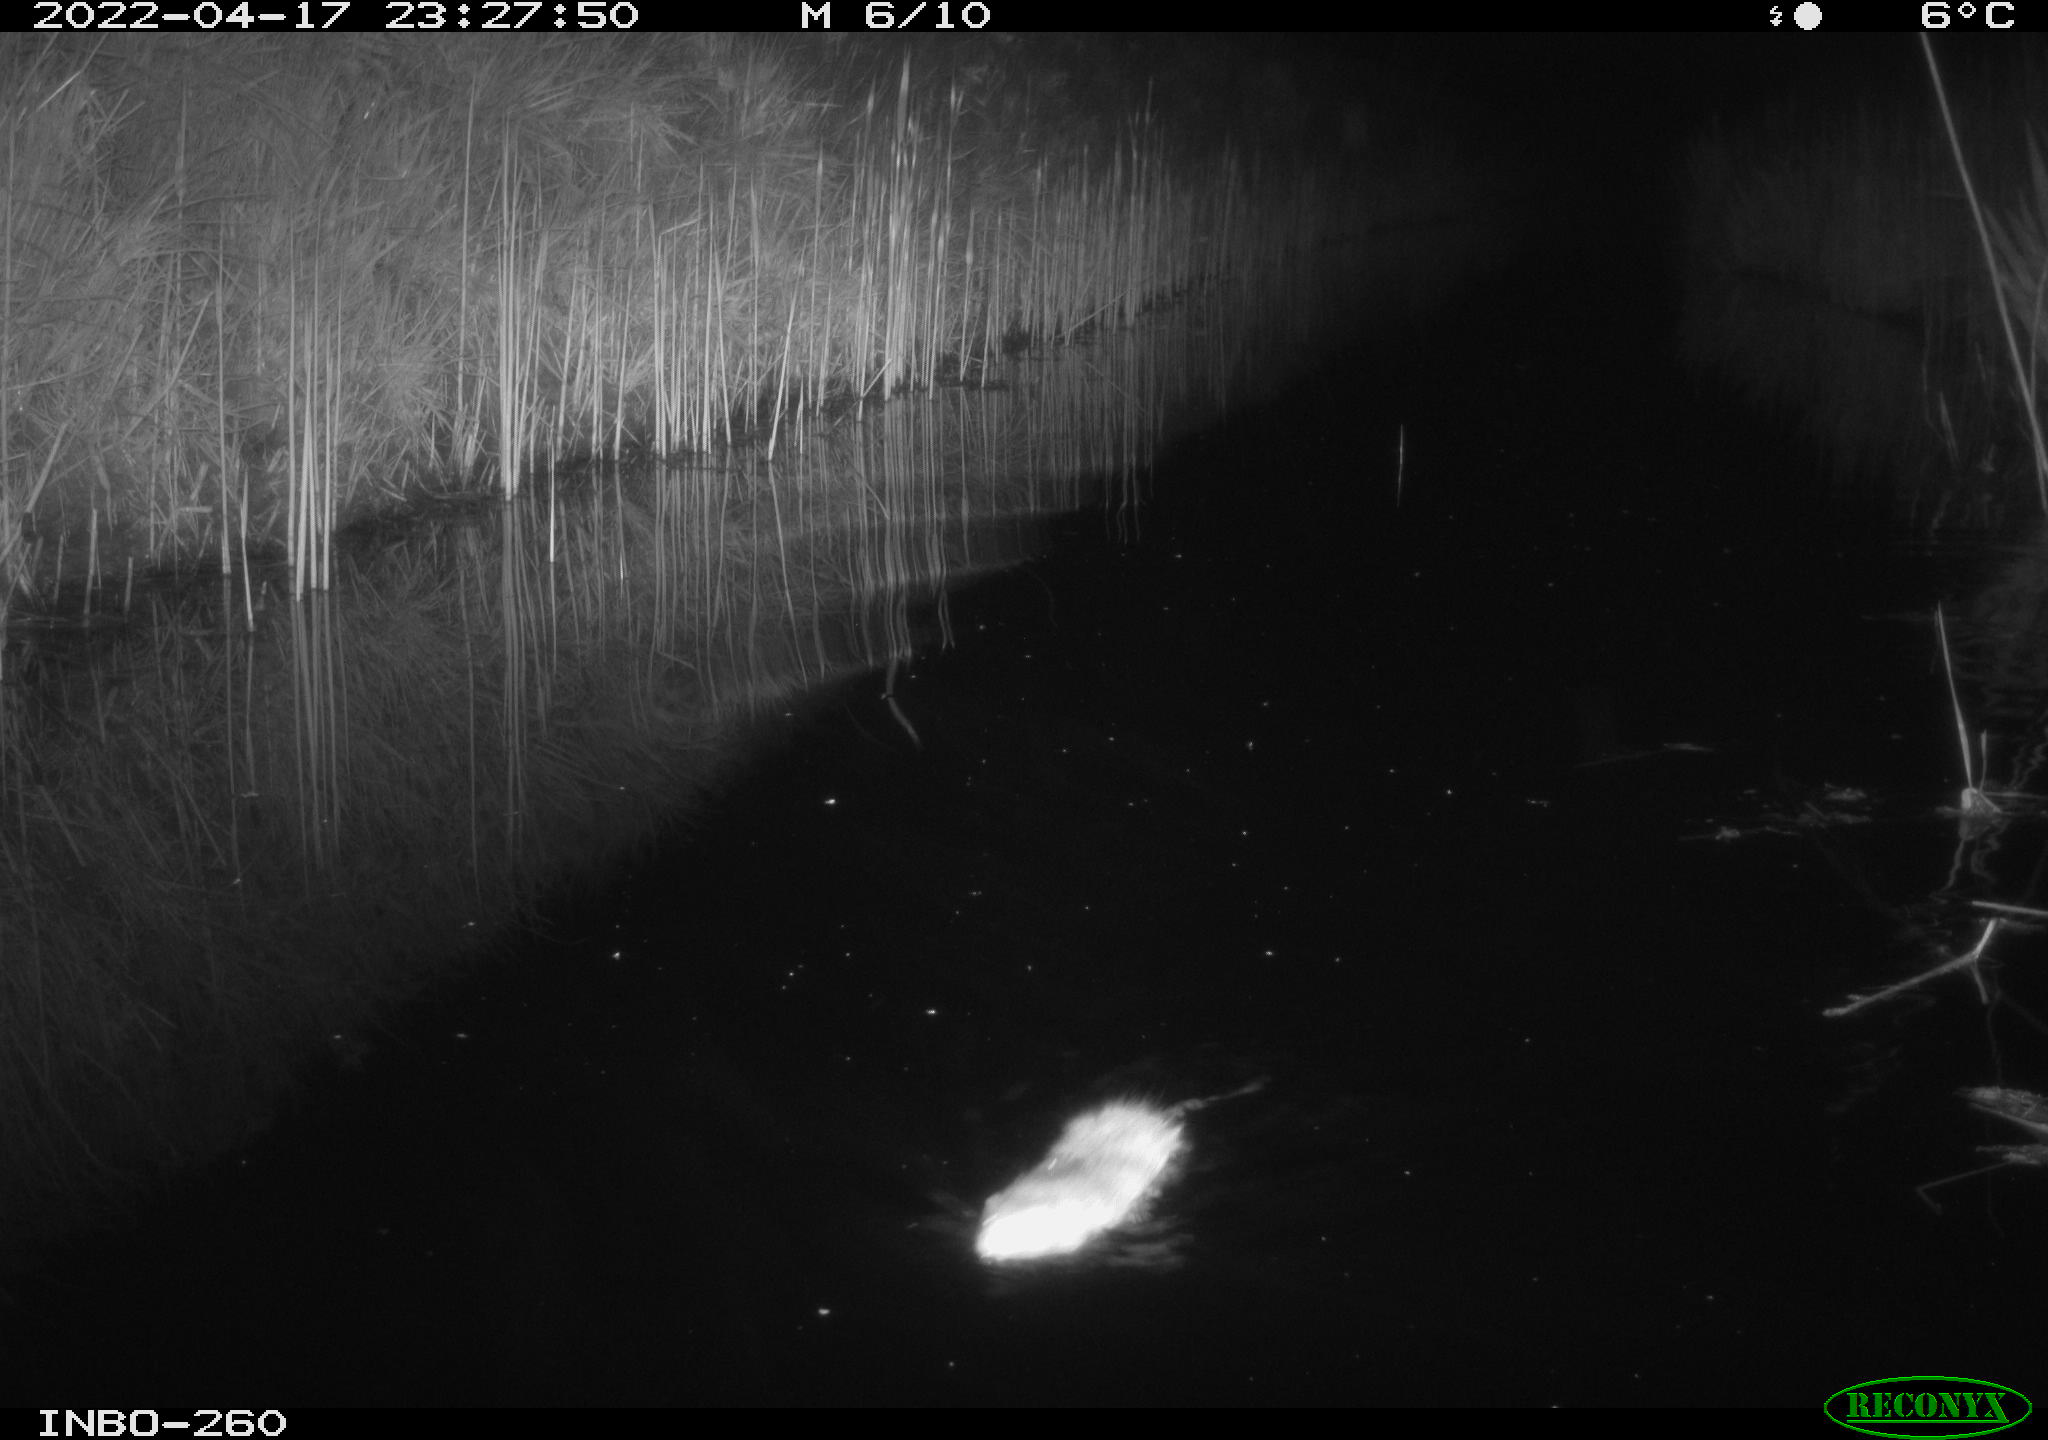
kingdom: Animalia
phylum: Chordata
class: Mammalia
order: Rodentia
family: Muridae
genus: Rattus
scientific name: Rattus norvegicus
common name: Brown rat
